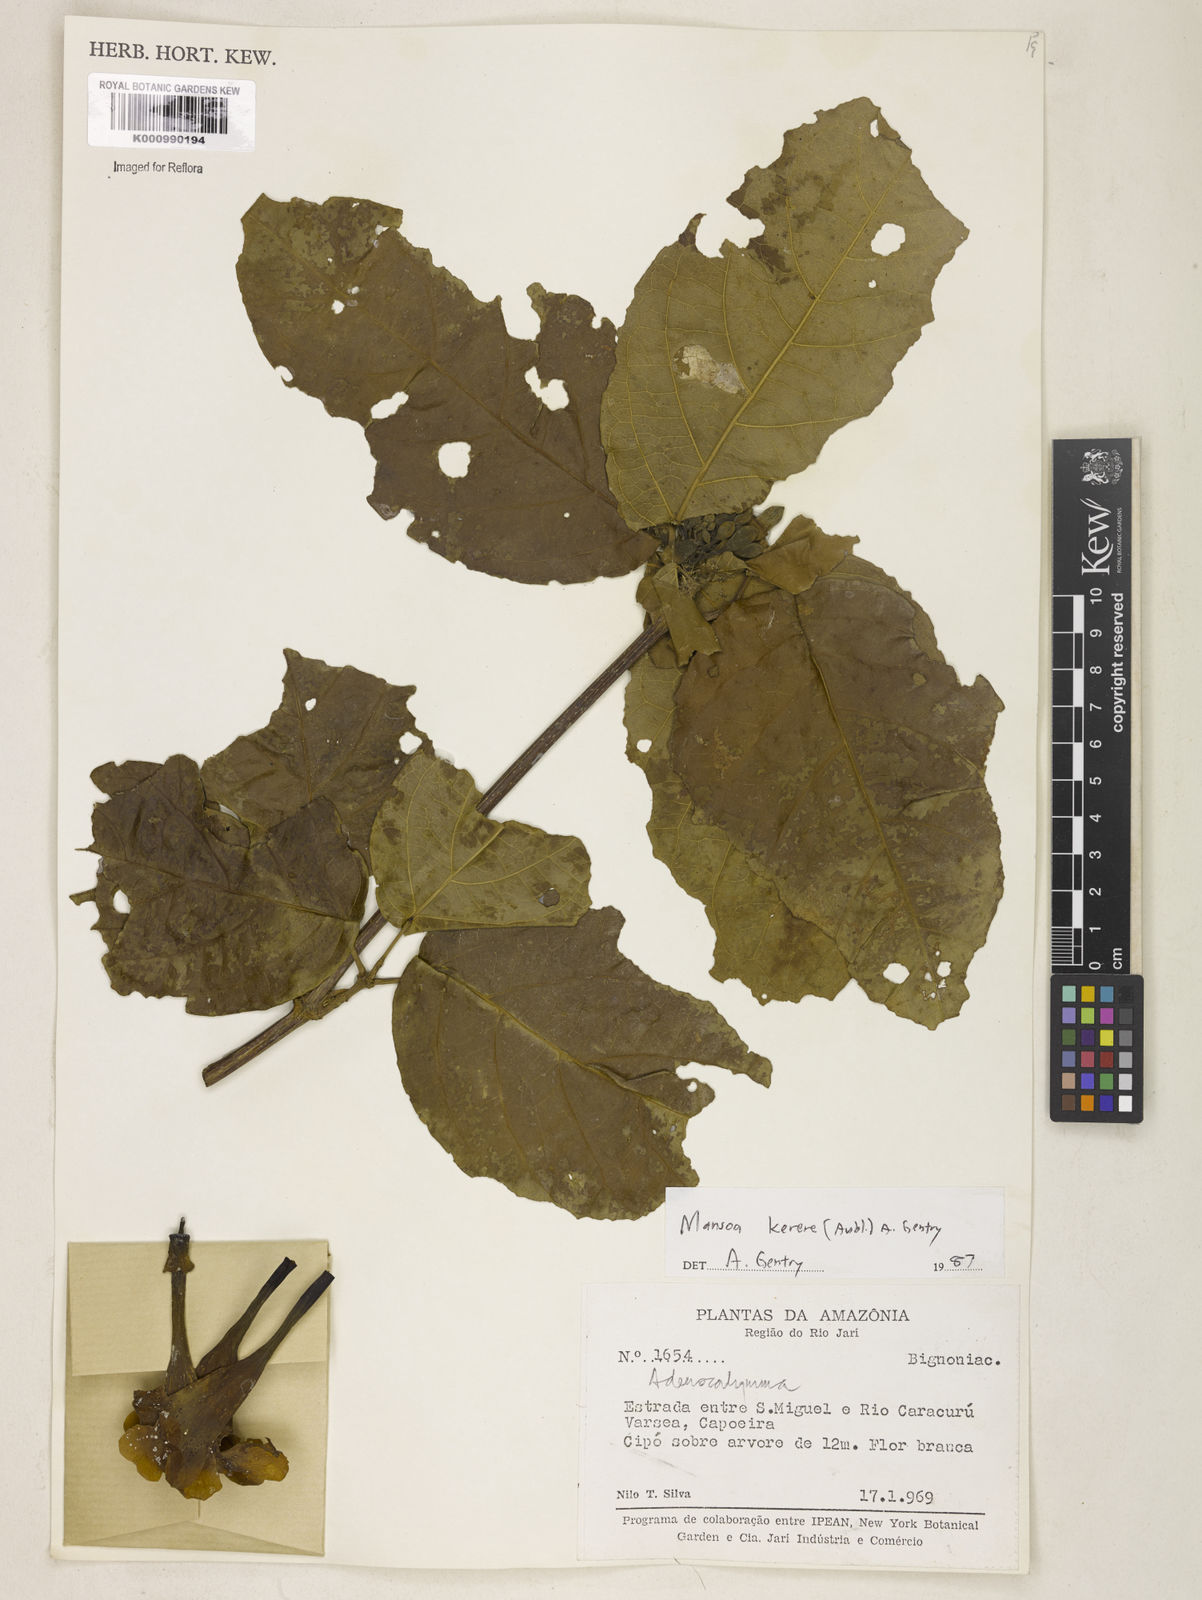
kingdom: Plantae
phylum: Tracheophyta
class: Magnoliopsida
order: Lamiales
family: Bignoniaceae
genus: Pachyptera
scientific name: Pachyptera kerere
